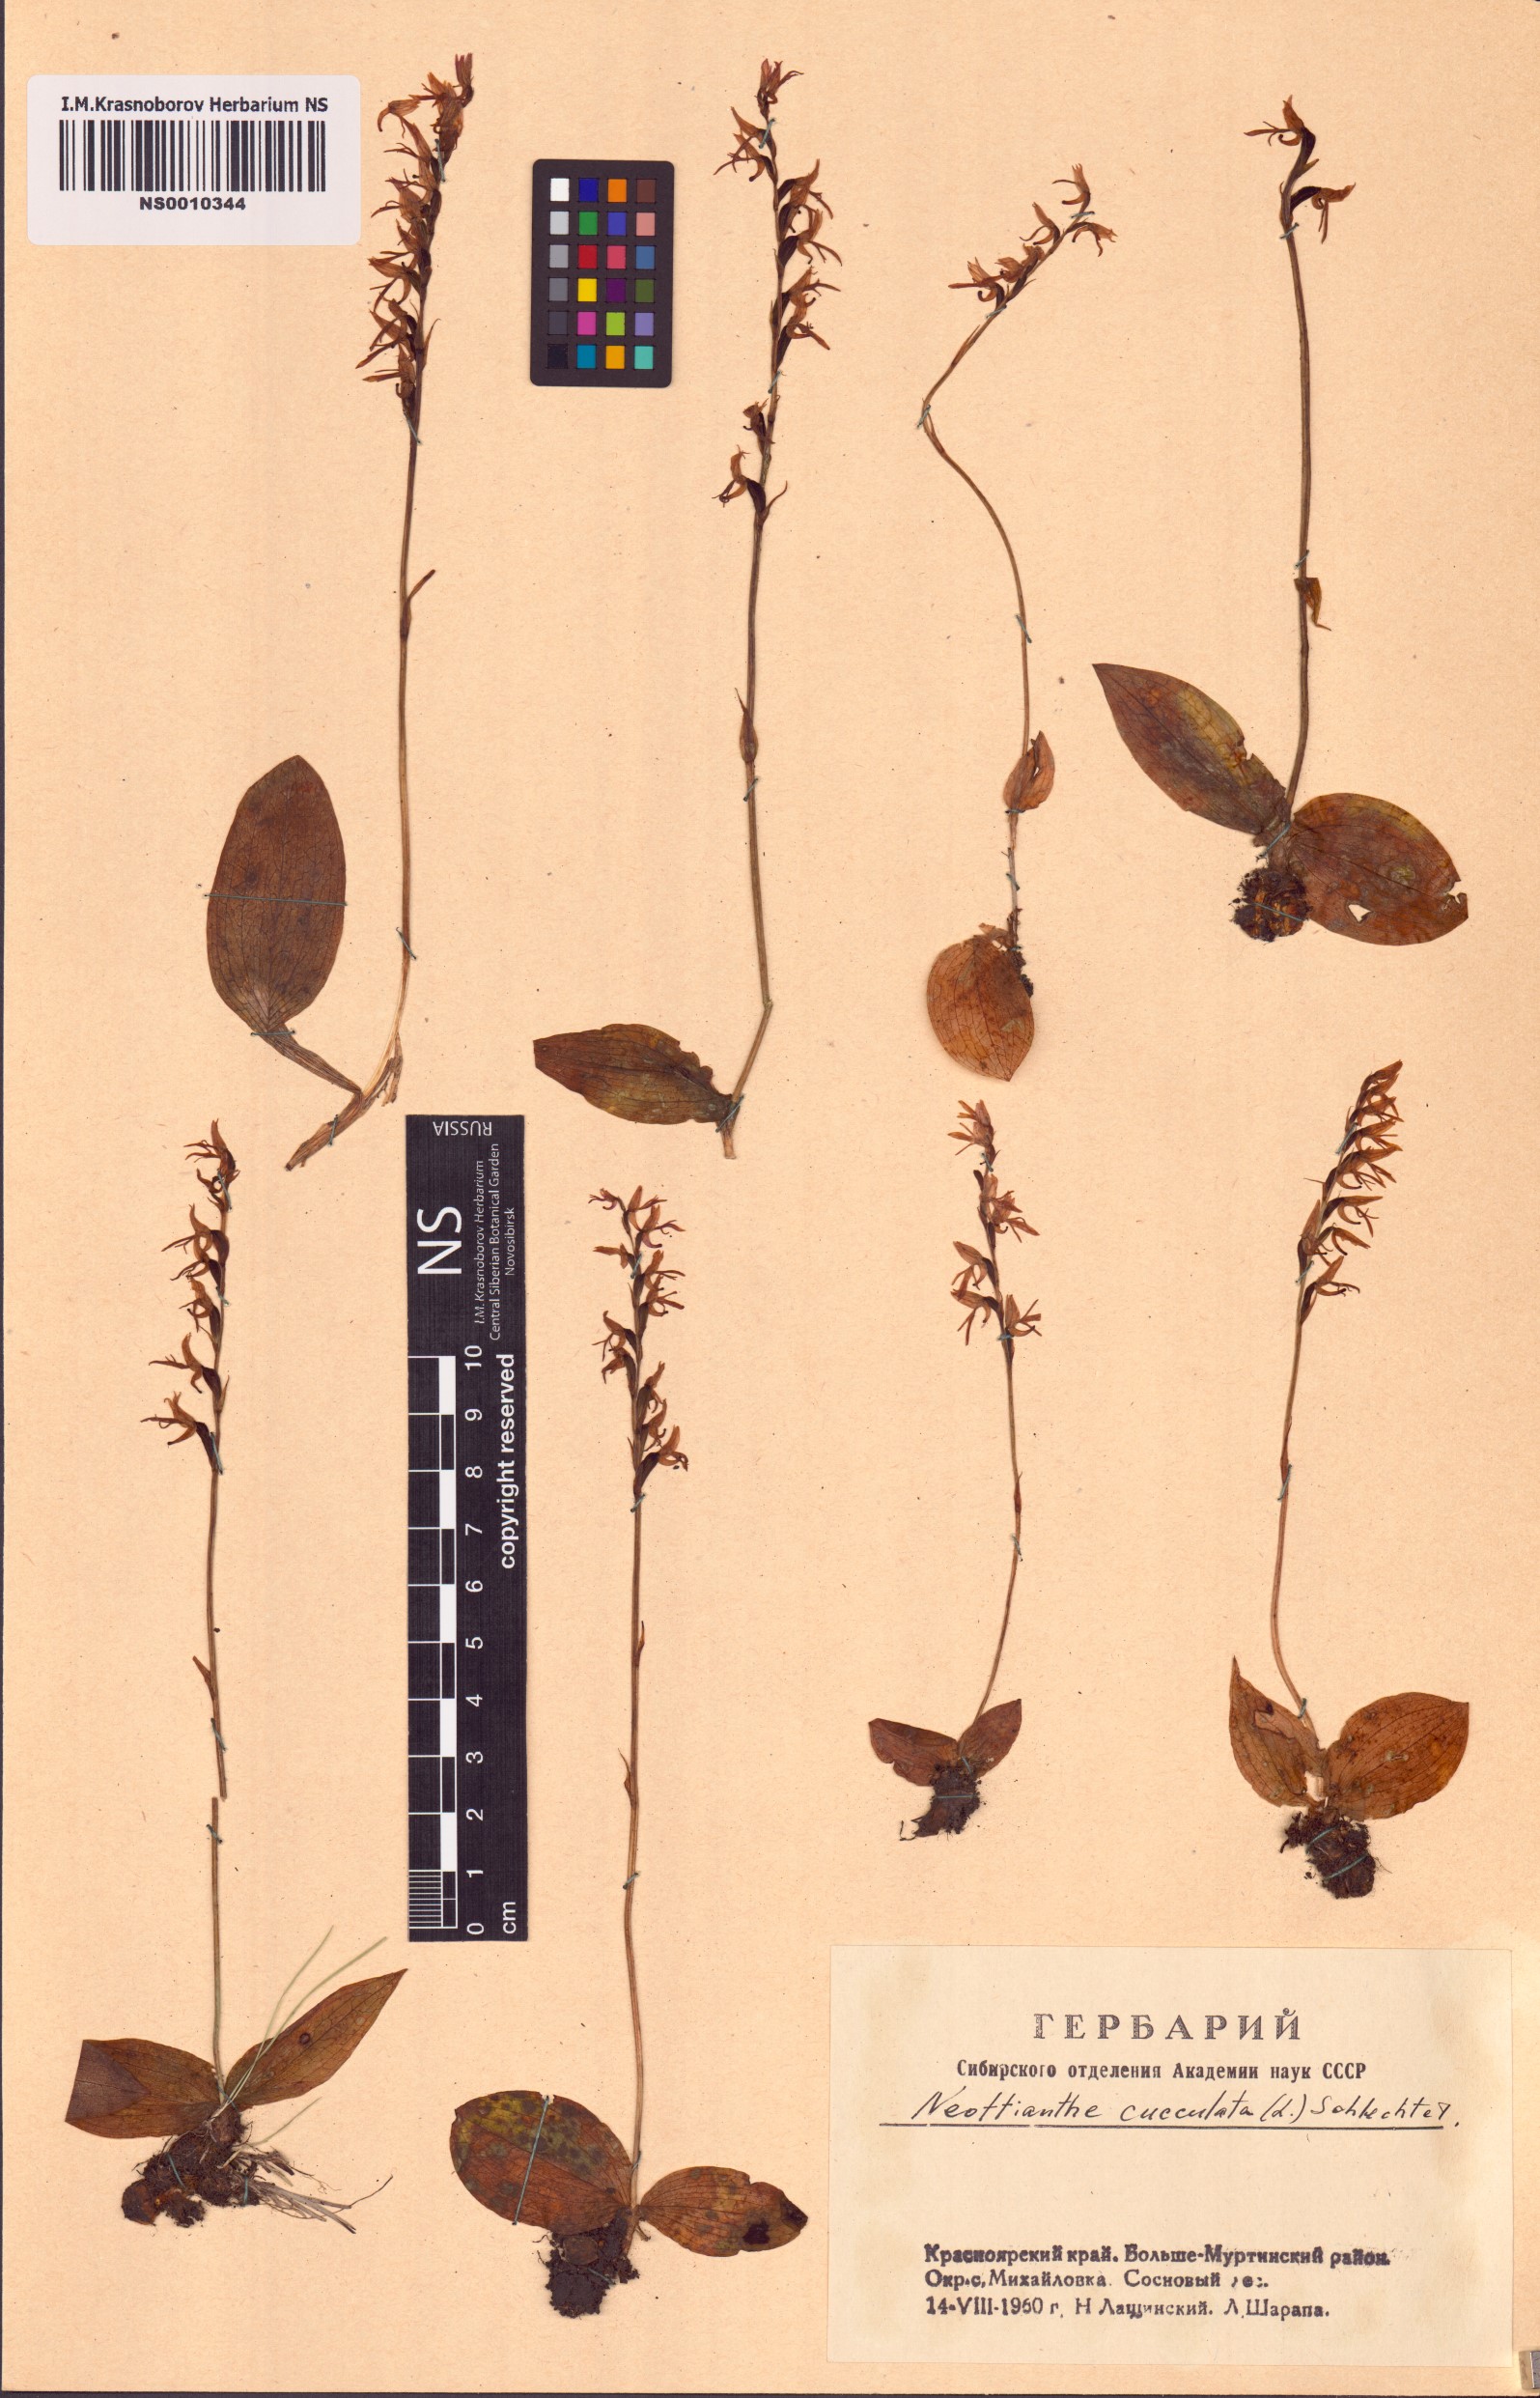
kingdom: Plantae
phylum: Tracheophyta
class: Liliopsida
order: Asparagales
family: Orchidaceae
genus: Hemipilia
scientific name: Hemipilia cucullata
